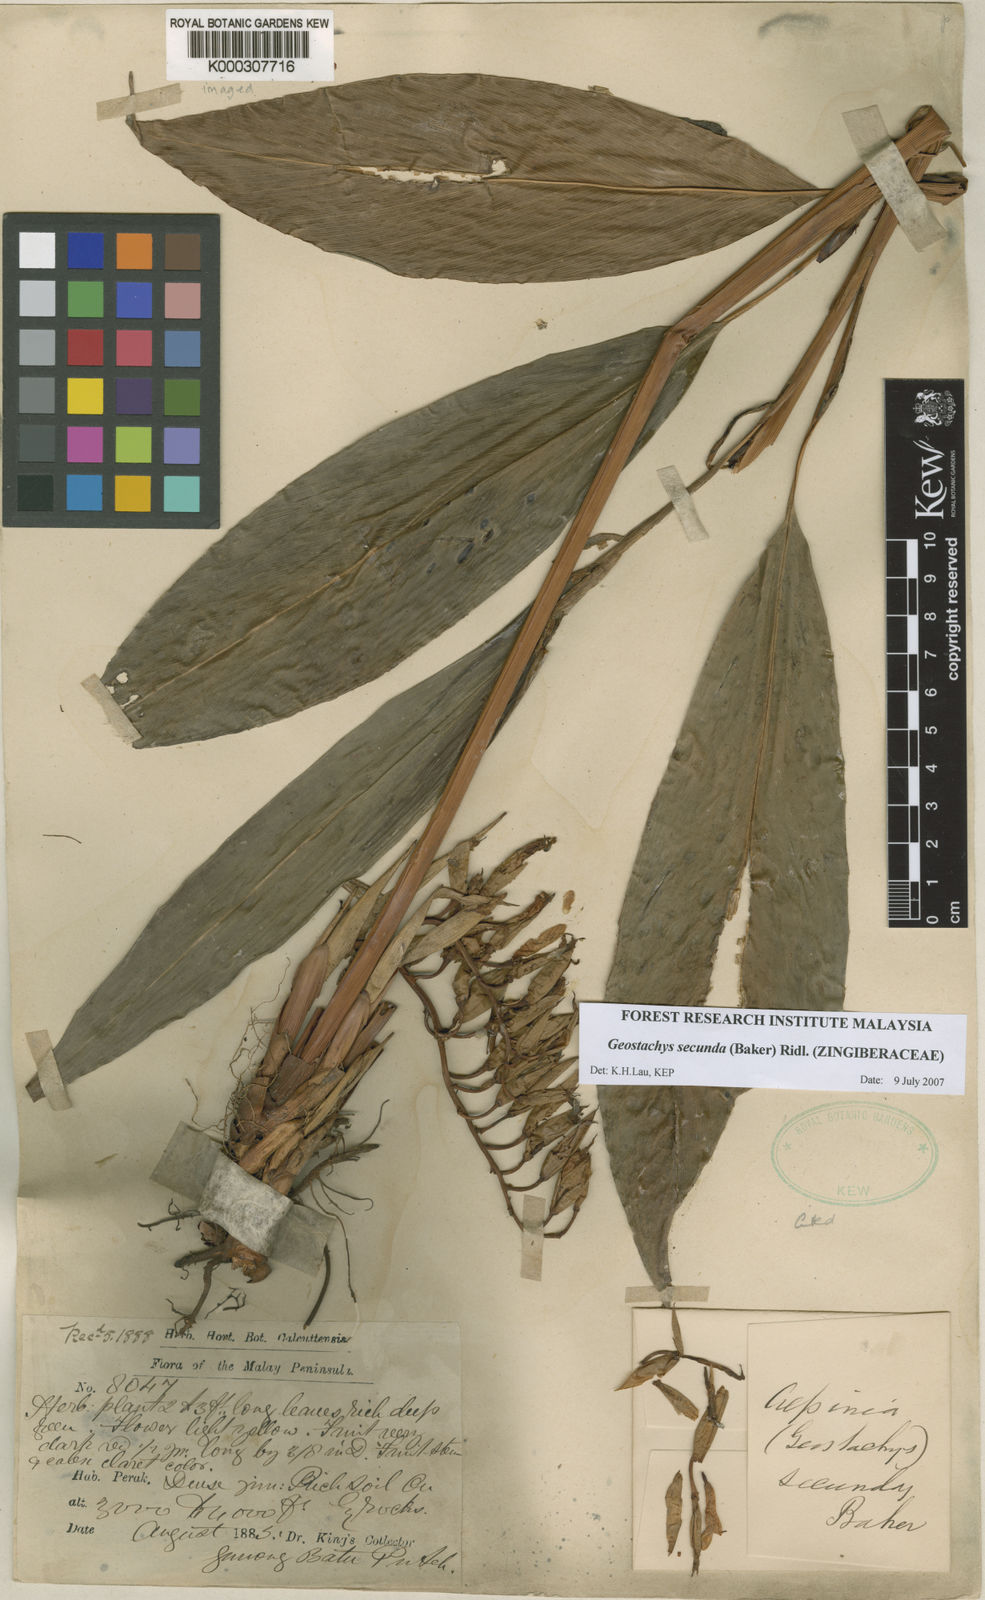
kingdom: Plantae
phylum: Tracheophyta
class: Liliopsida
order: Zingiberales
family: Zingiberaceae
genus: Geostachys
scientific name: Geostachys secunda
